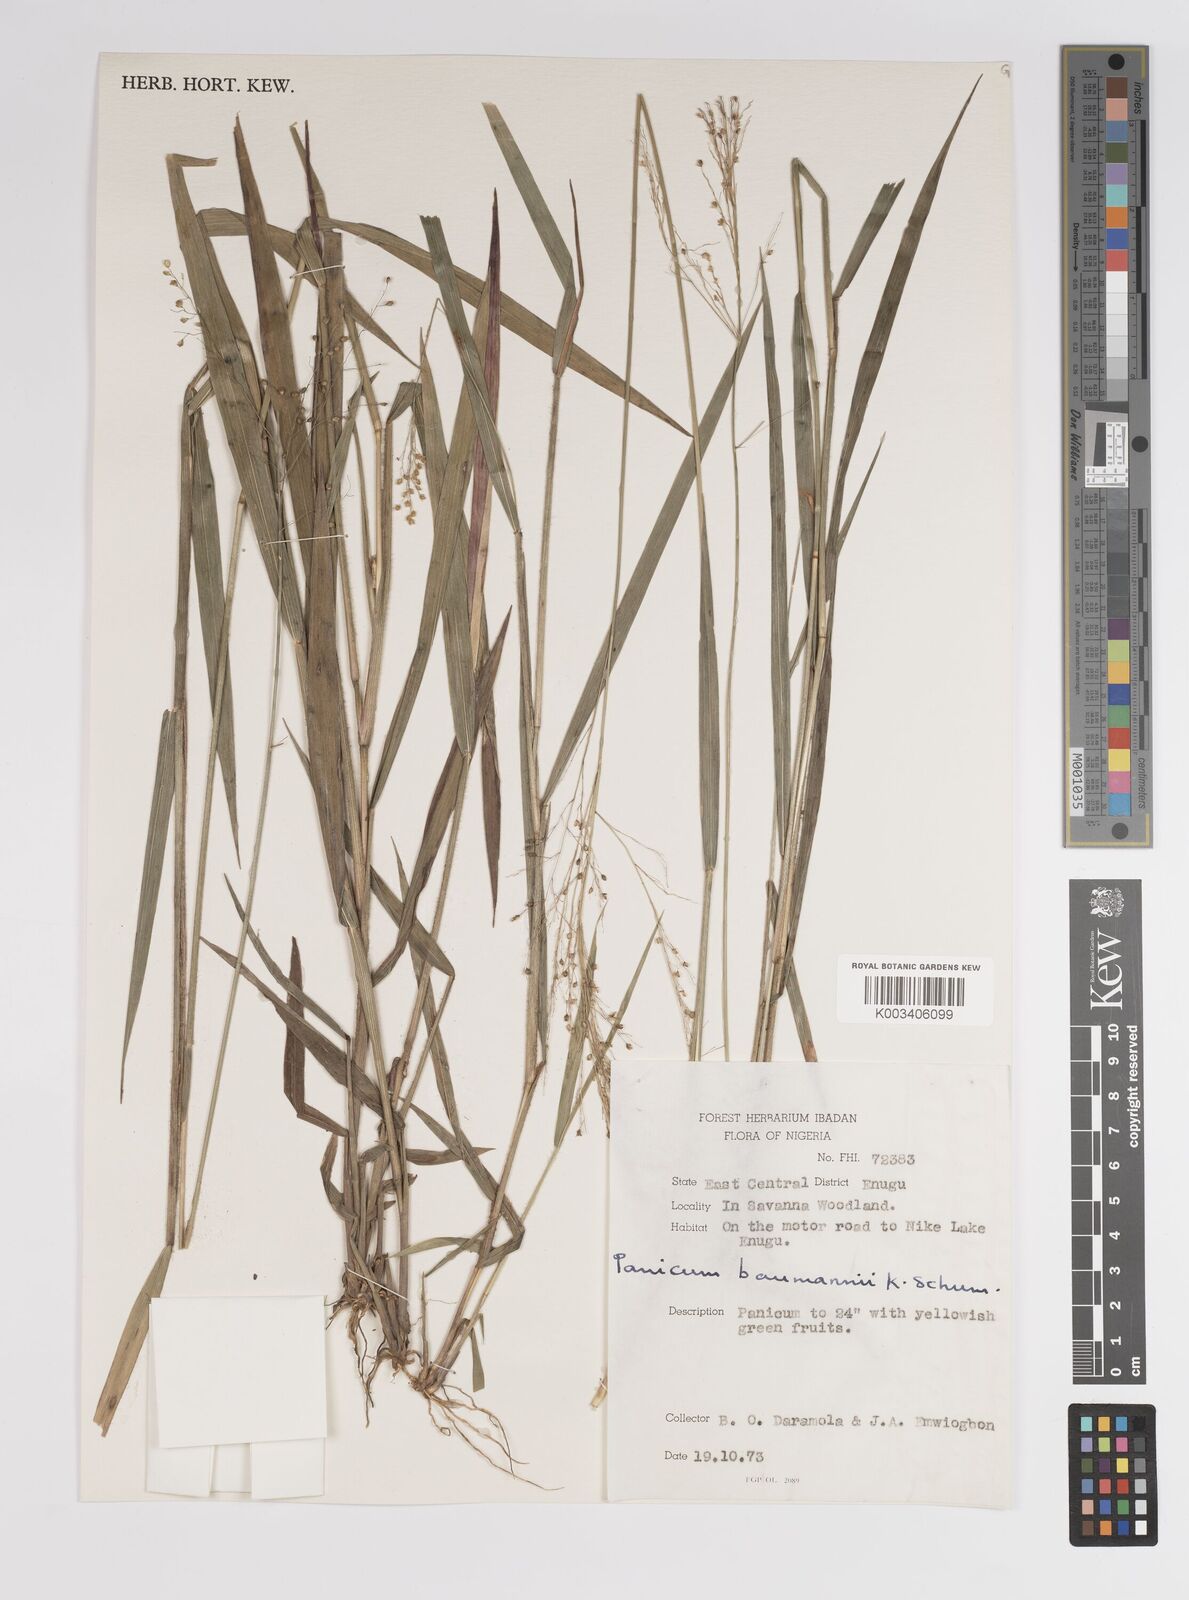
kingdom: Plantae
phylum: Tracheophyta
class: Liliopsida
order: Poales
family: Poaceae
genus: Trichanthecium
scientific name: Trichanthecium praealtum
